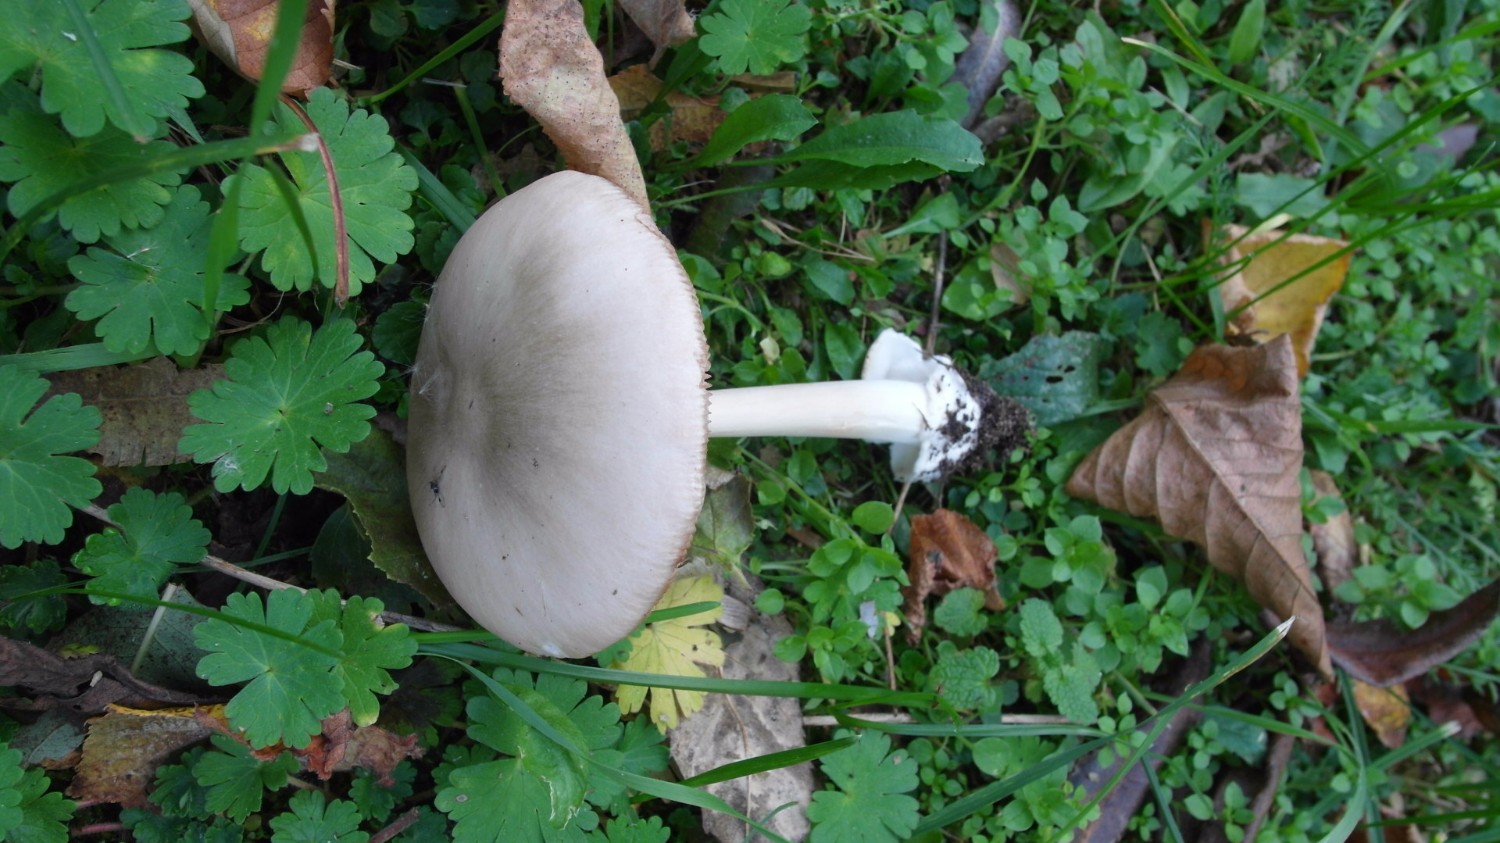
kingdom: Fungi
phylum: Basidiomycota
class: Agaricomycetes
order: Agaricales
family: Pluteaceae
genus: Volvopluteus
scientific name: Volvopluteus gloiocephalus
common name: høj posesvamp
